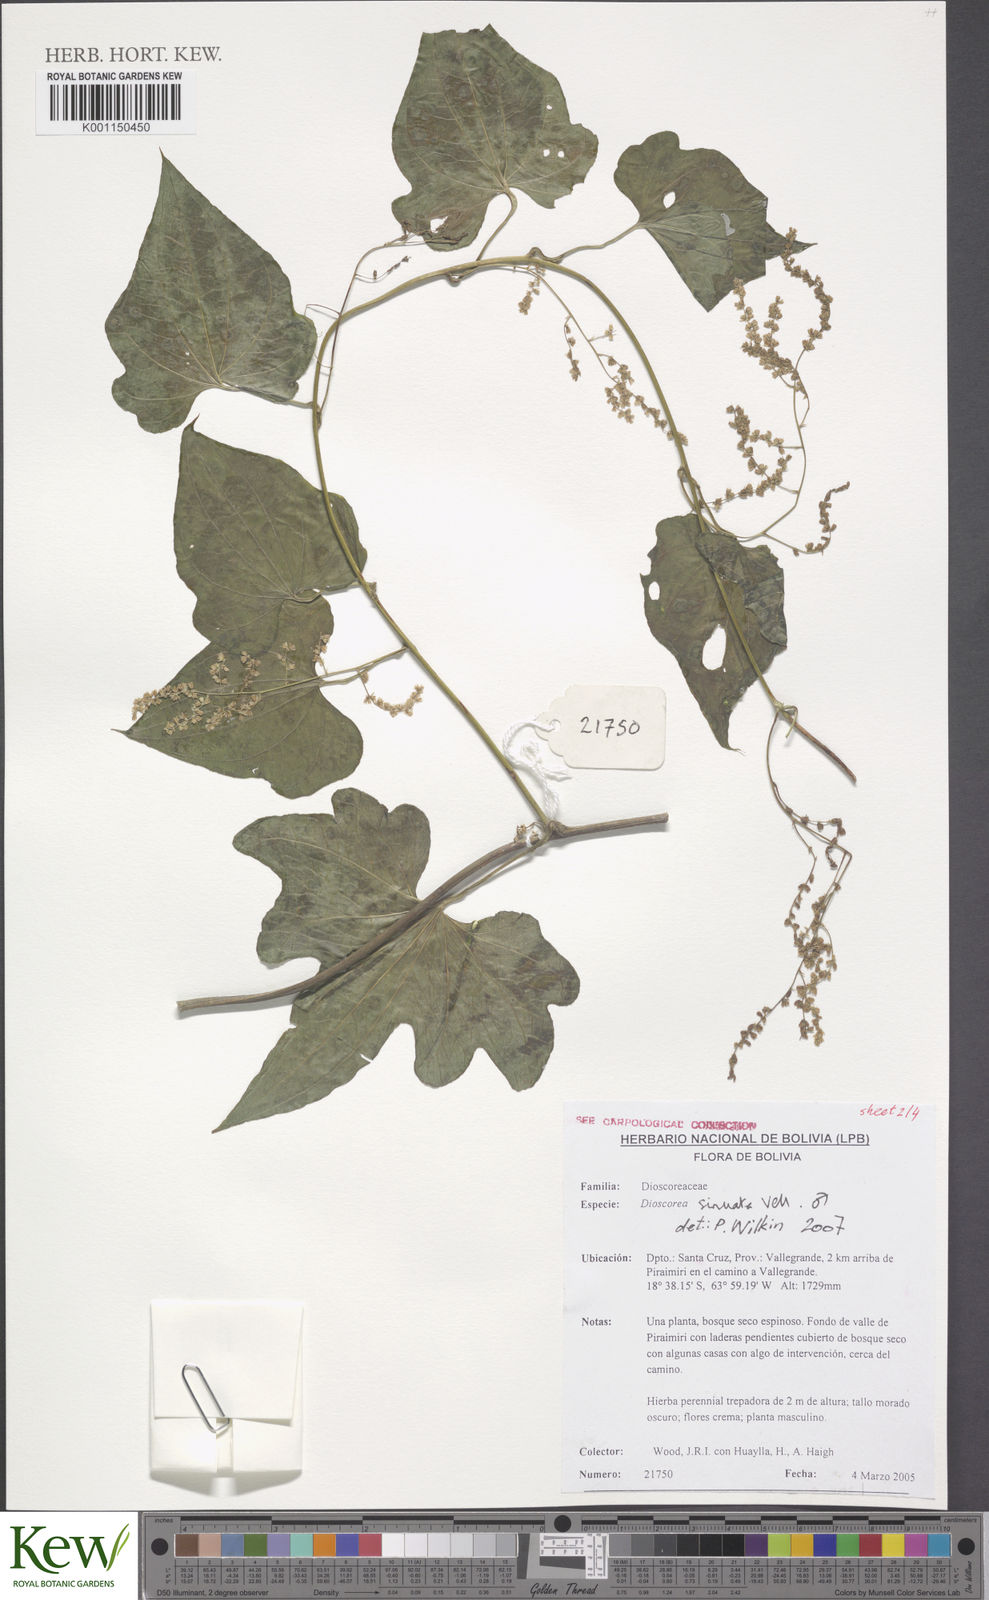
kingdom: Plantae
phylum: Tracheophyta
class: Liliopsida
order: Dioscoreales
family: Dioscoreaceae
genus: Dioscorea
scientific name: Dioscorea sinuata
